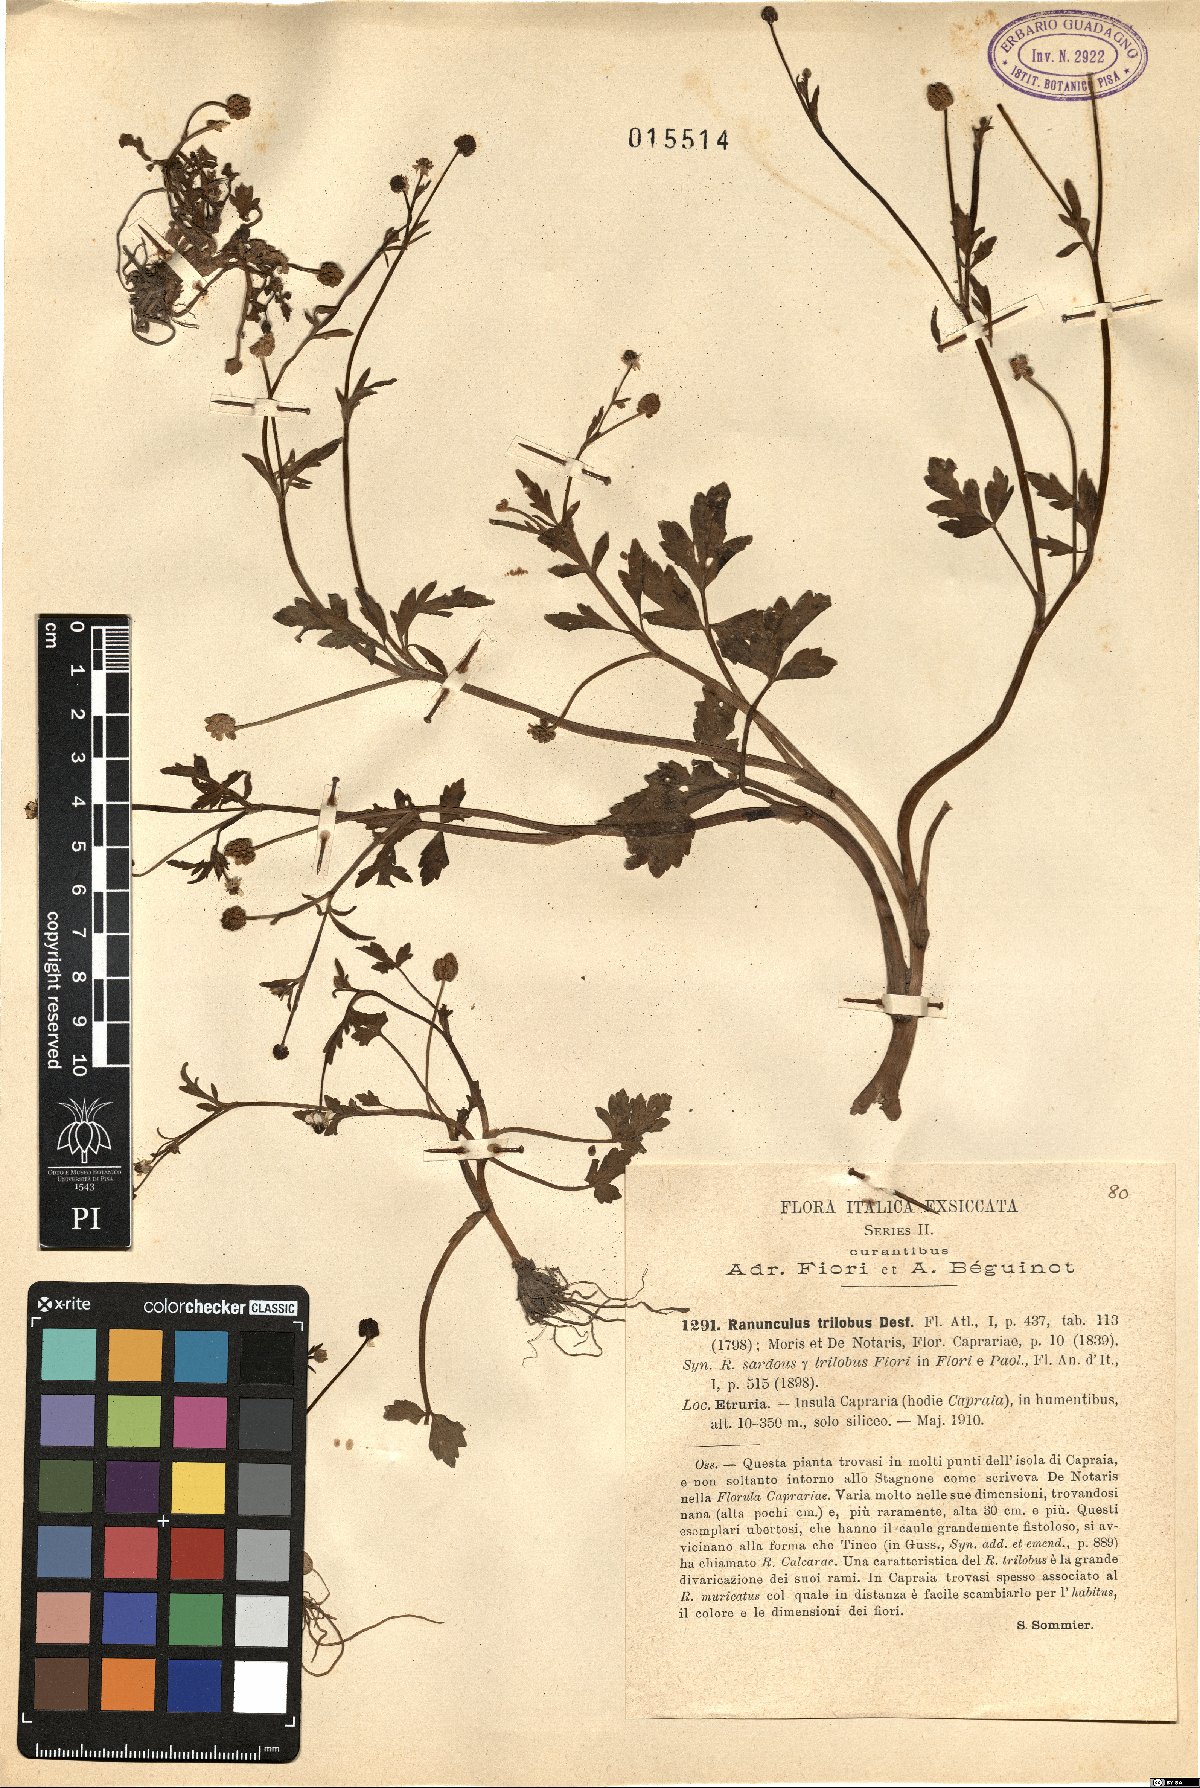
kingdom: Plantae
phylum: Tracheophyta
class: Magnoliopsida
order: Ranunculales
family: Ranunculaceae
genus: Ranunculus
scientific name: Ranunculus trilobus
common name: Threelobe buttercup
